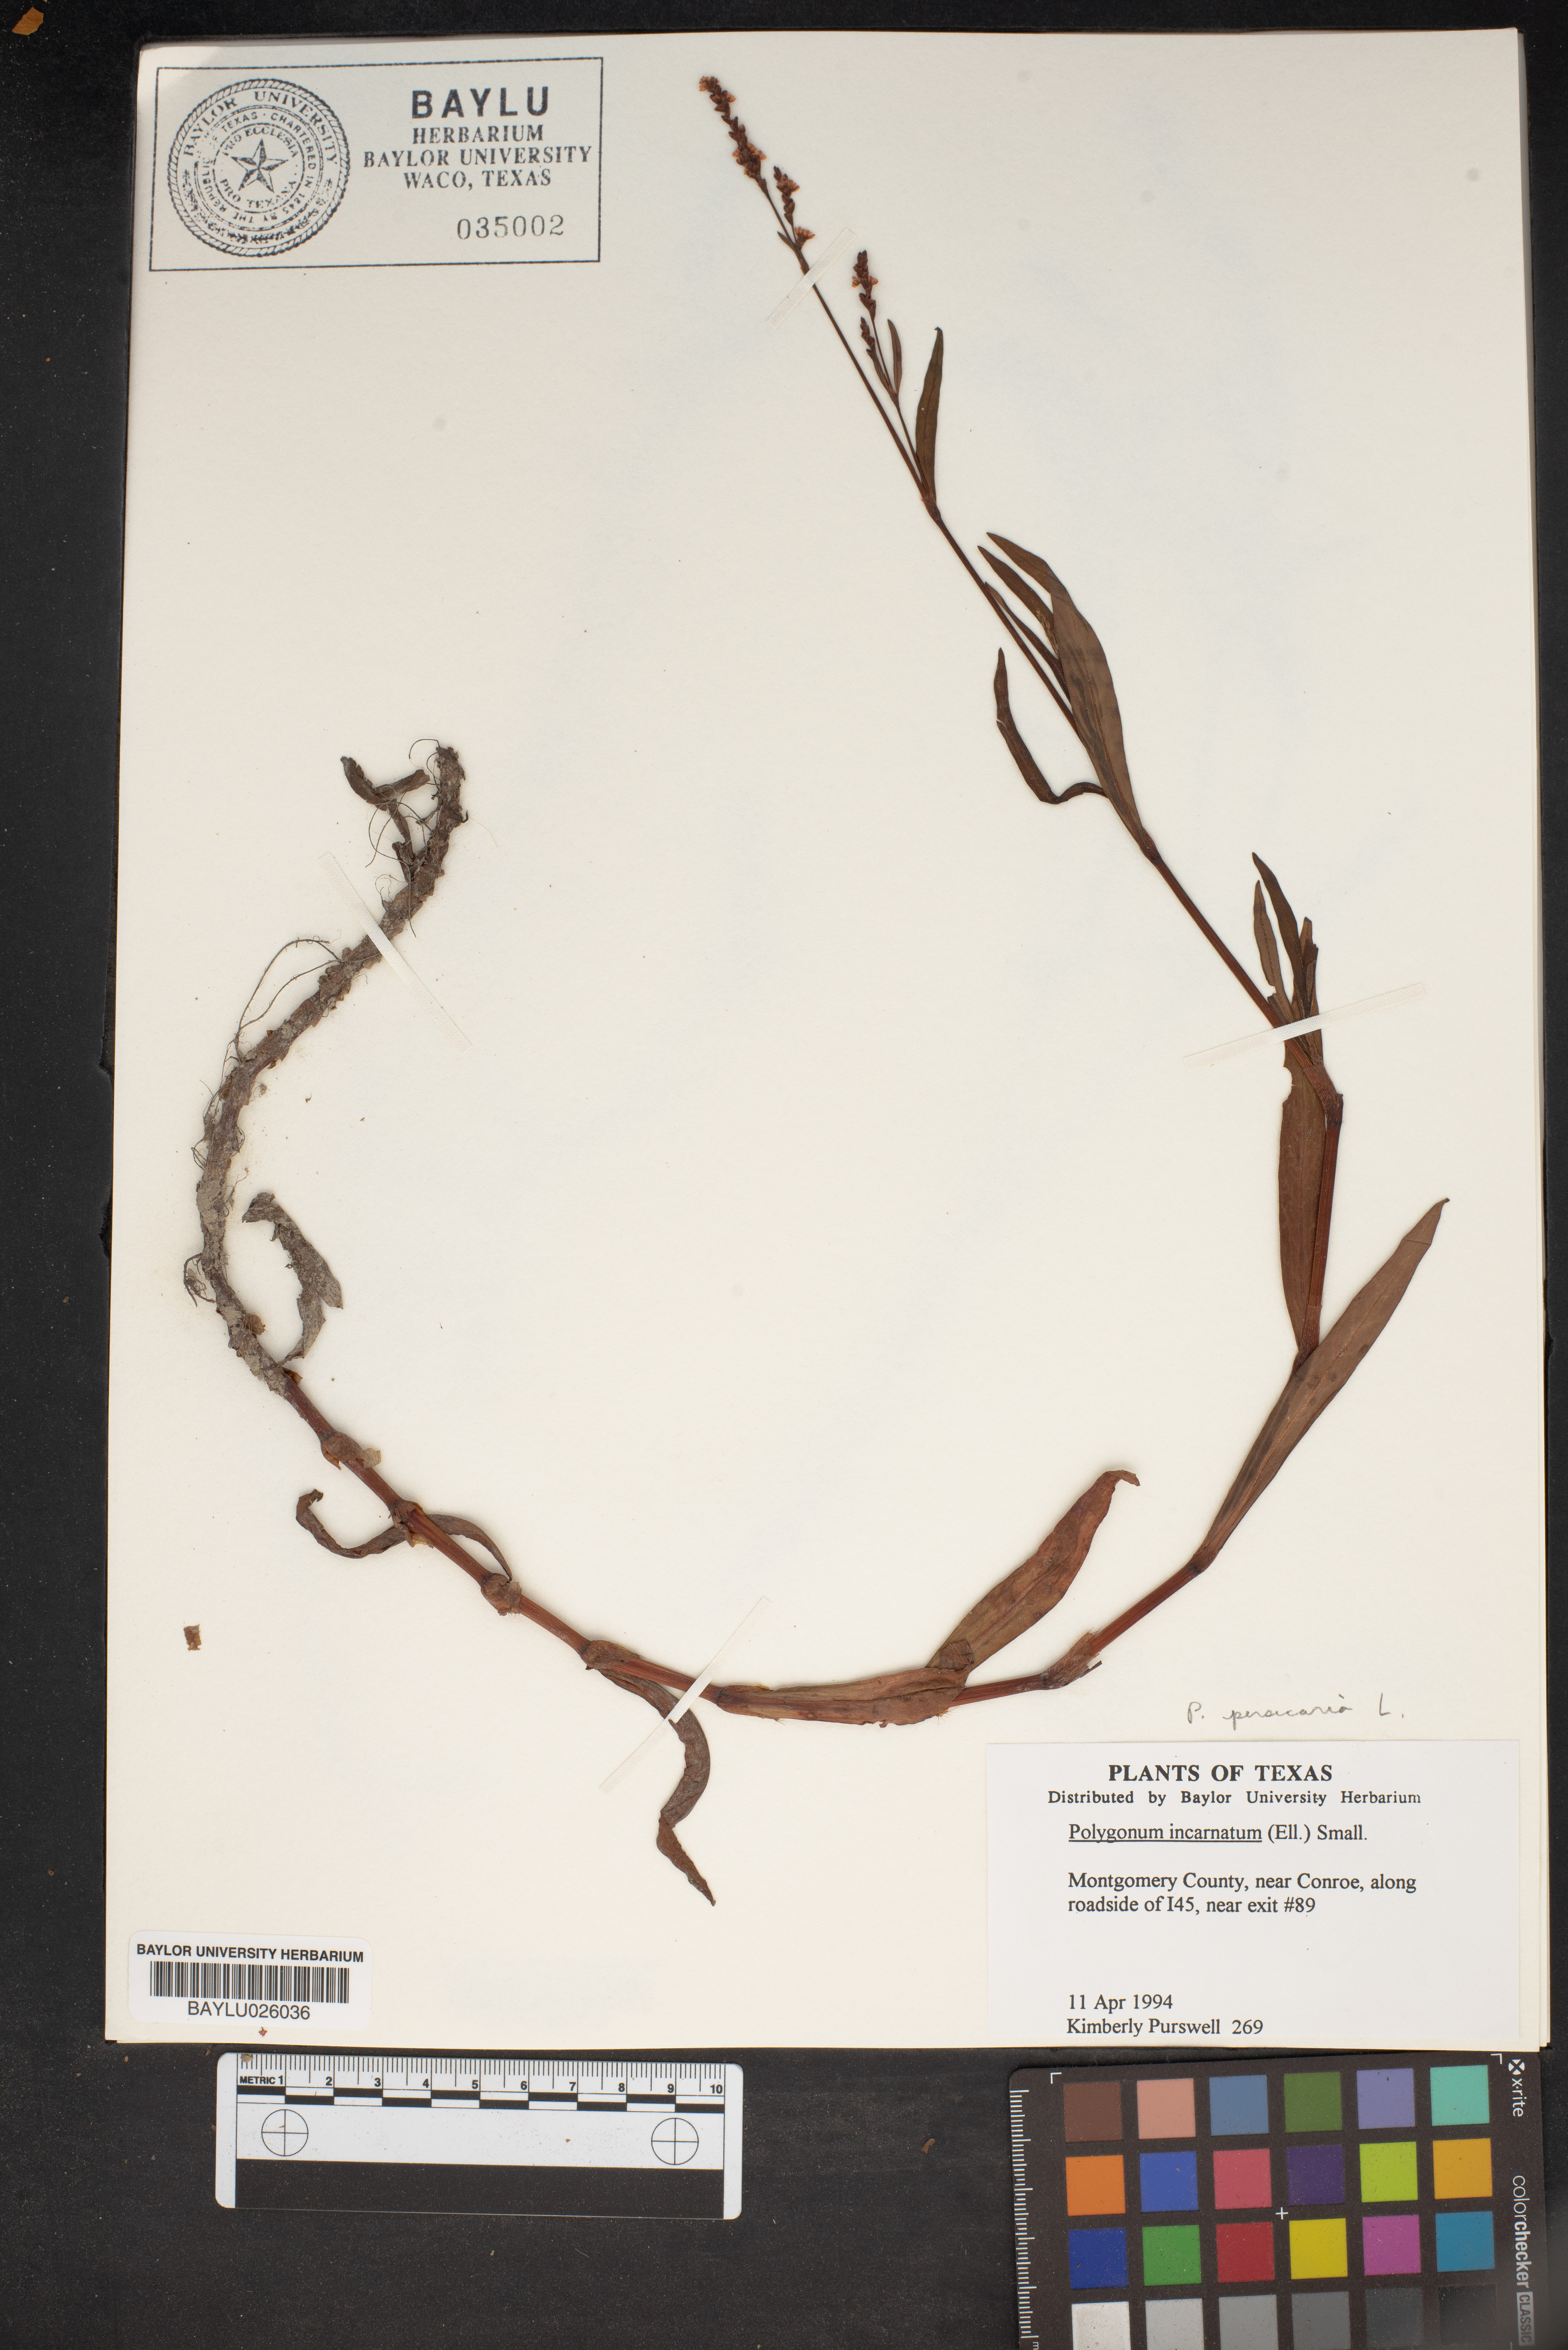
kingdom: Plantae
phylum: Tracheophyta
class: Magnoliopsida
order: Caryophyllales
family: Polygonaceae
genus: Persicaria
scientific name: Persicaria lapathifolia
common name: Curlytop knotweed
